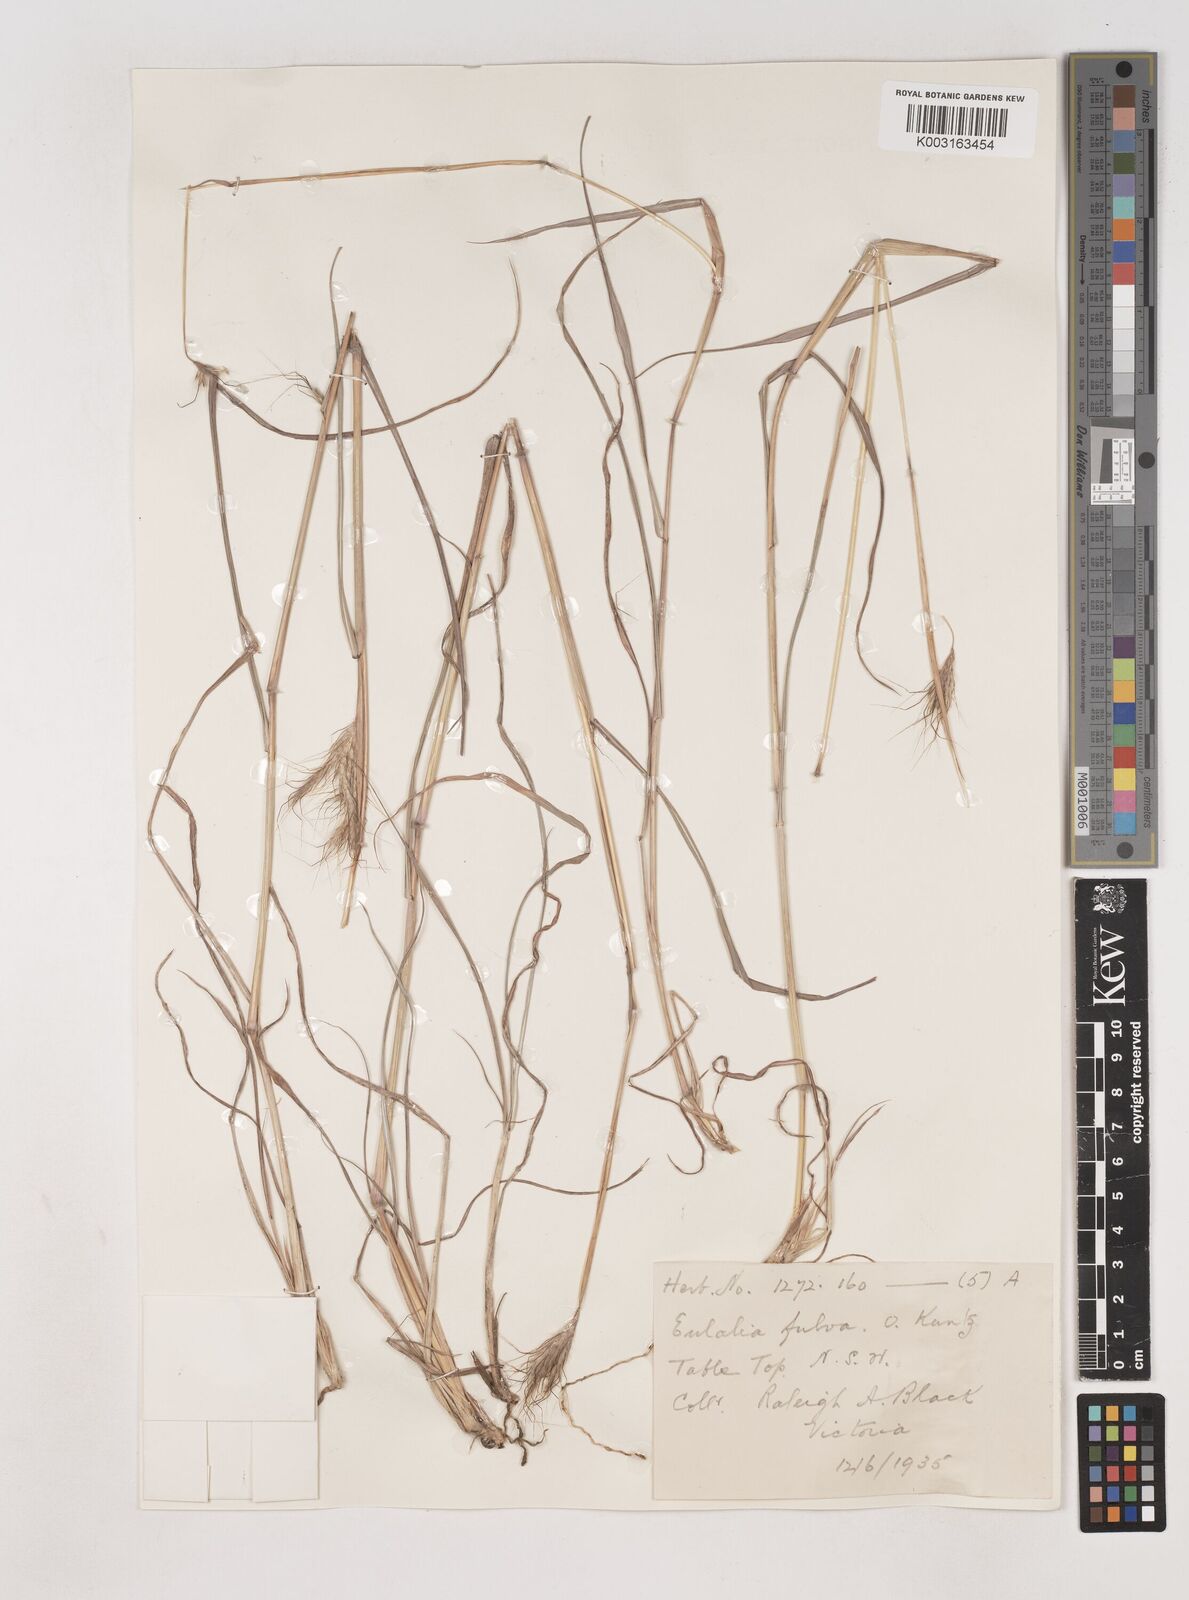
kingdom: Plantae
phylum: Tracheophyta
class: Liliopsida
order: Poales
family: Poaceae
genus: Dichanthium
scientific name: Dichanthium sericeum
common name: Silky bluestem
